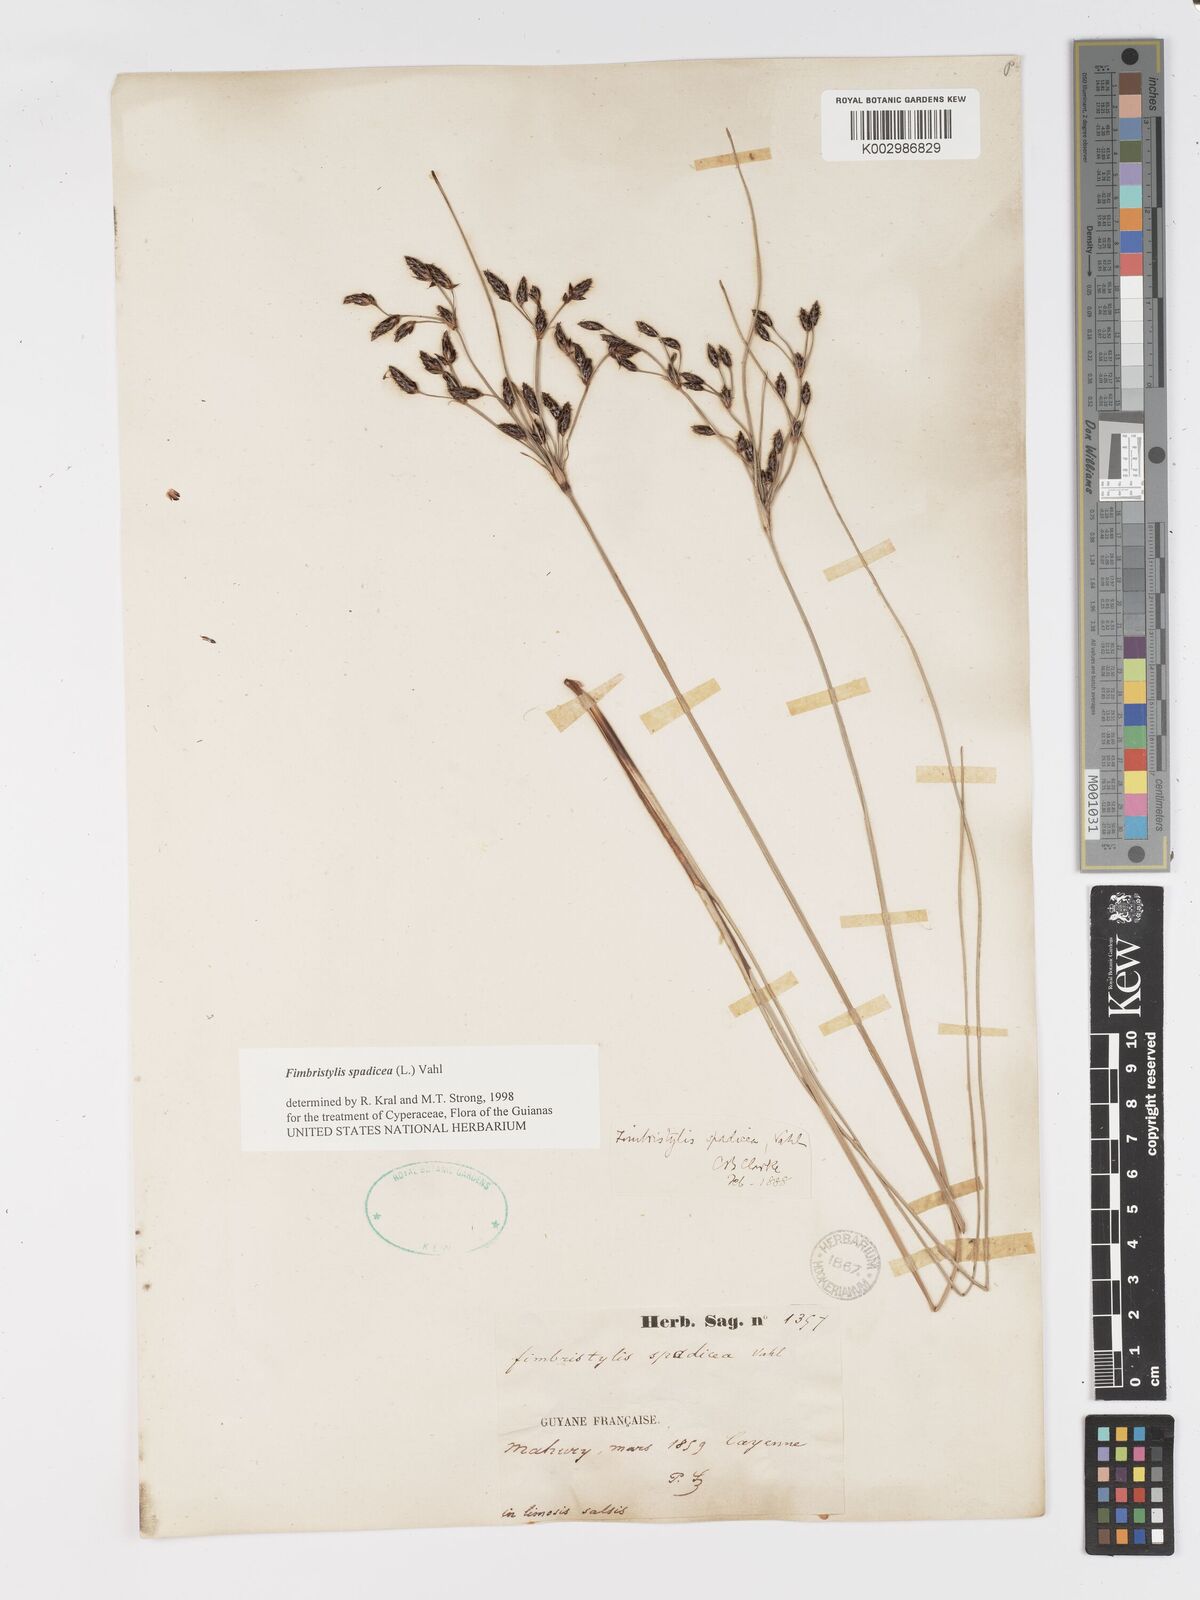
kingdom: Plantae
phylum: Tracheophyta
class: Liliopsida
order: Poales
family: Cyperaceae
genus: Fimbristylis
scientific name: Fimbristylis spadicea
